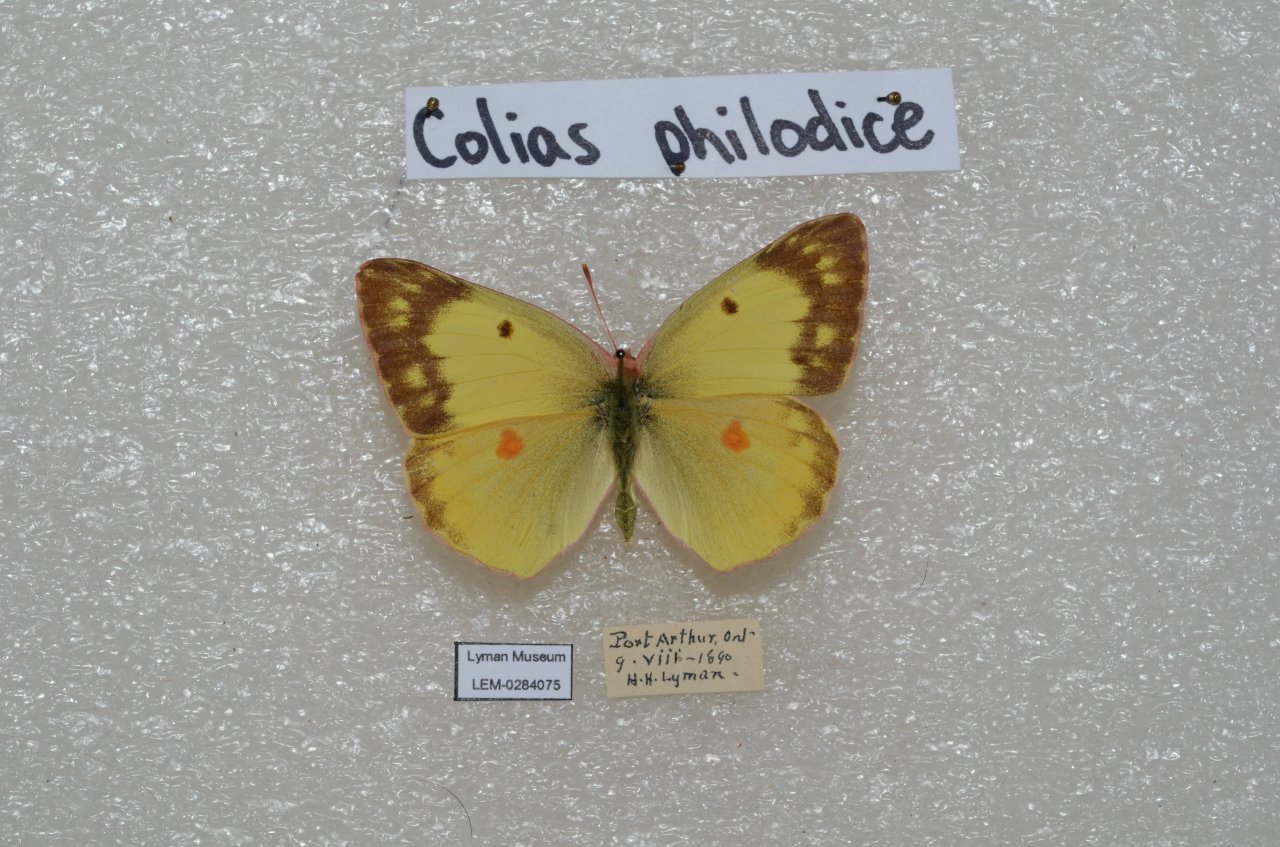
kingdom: Animalia
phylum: Arthropoda
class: Insecta
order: Lepidoptera
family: Pieridae
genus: Colias
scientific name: Colias philodice
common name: Clouded Sulphur
